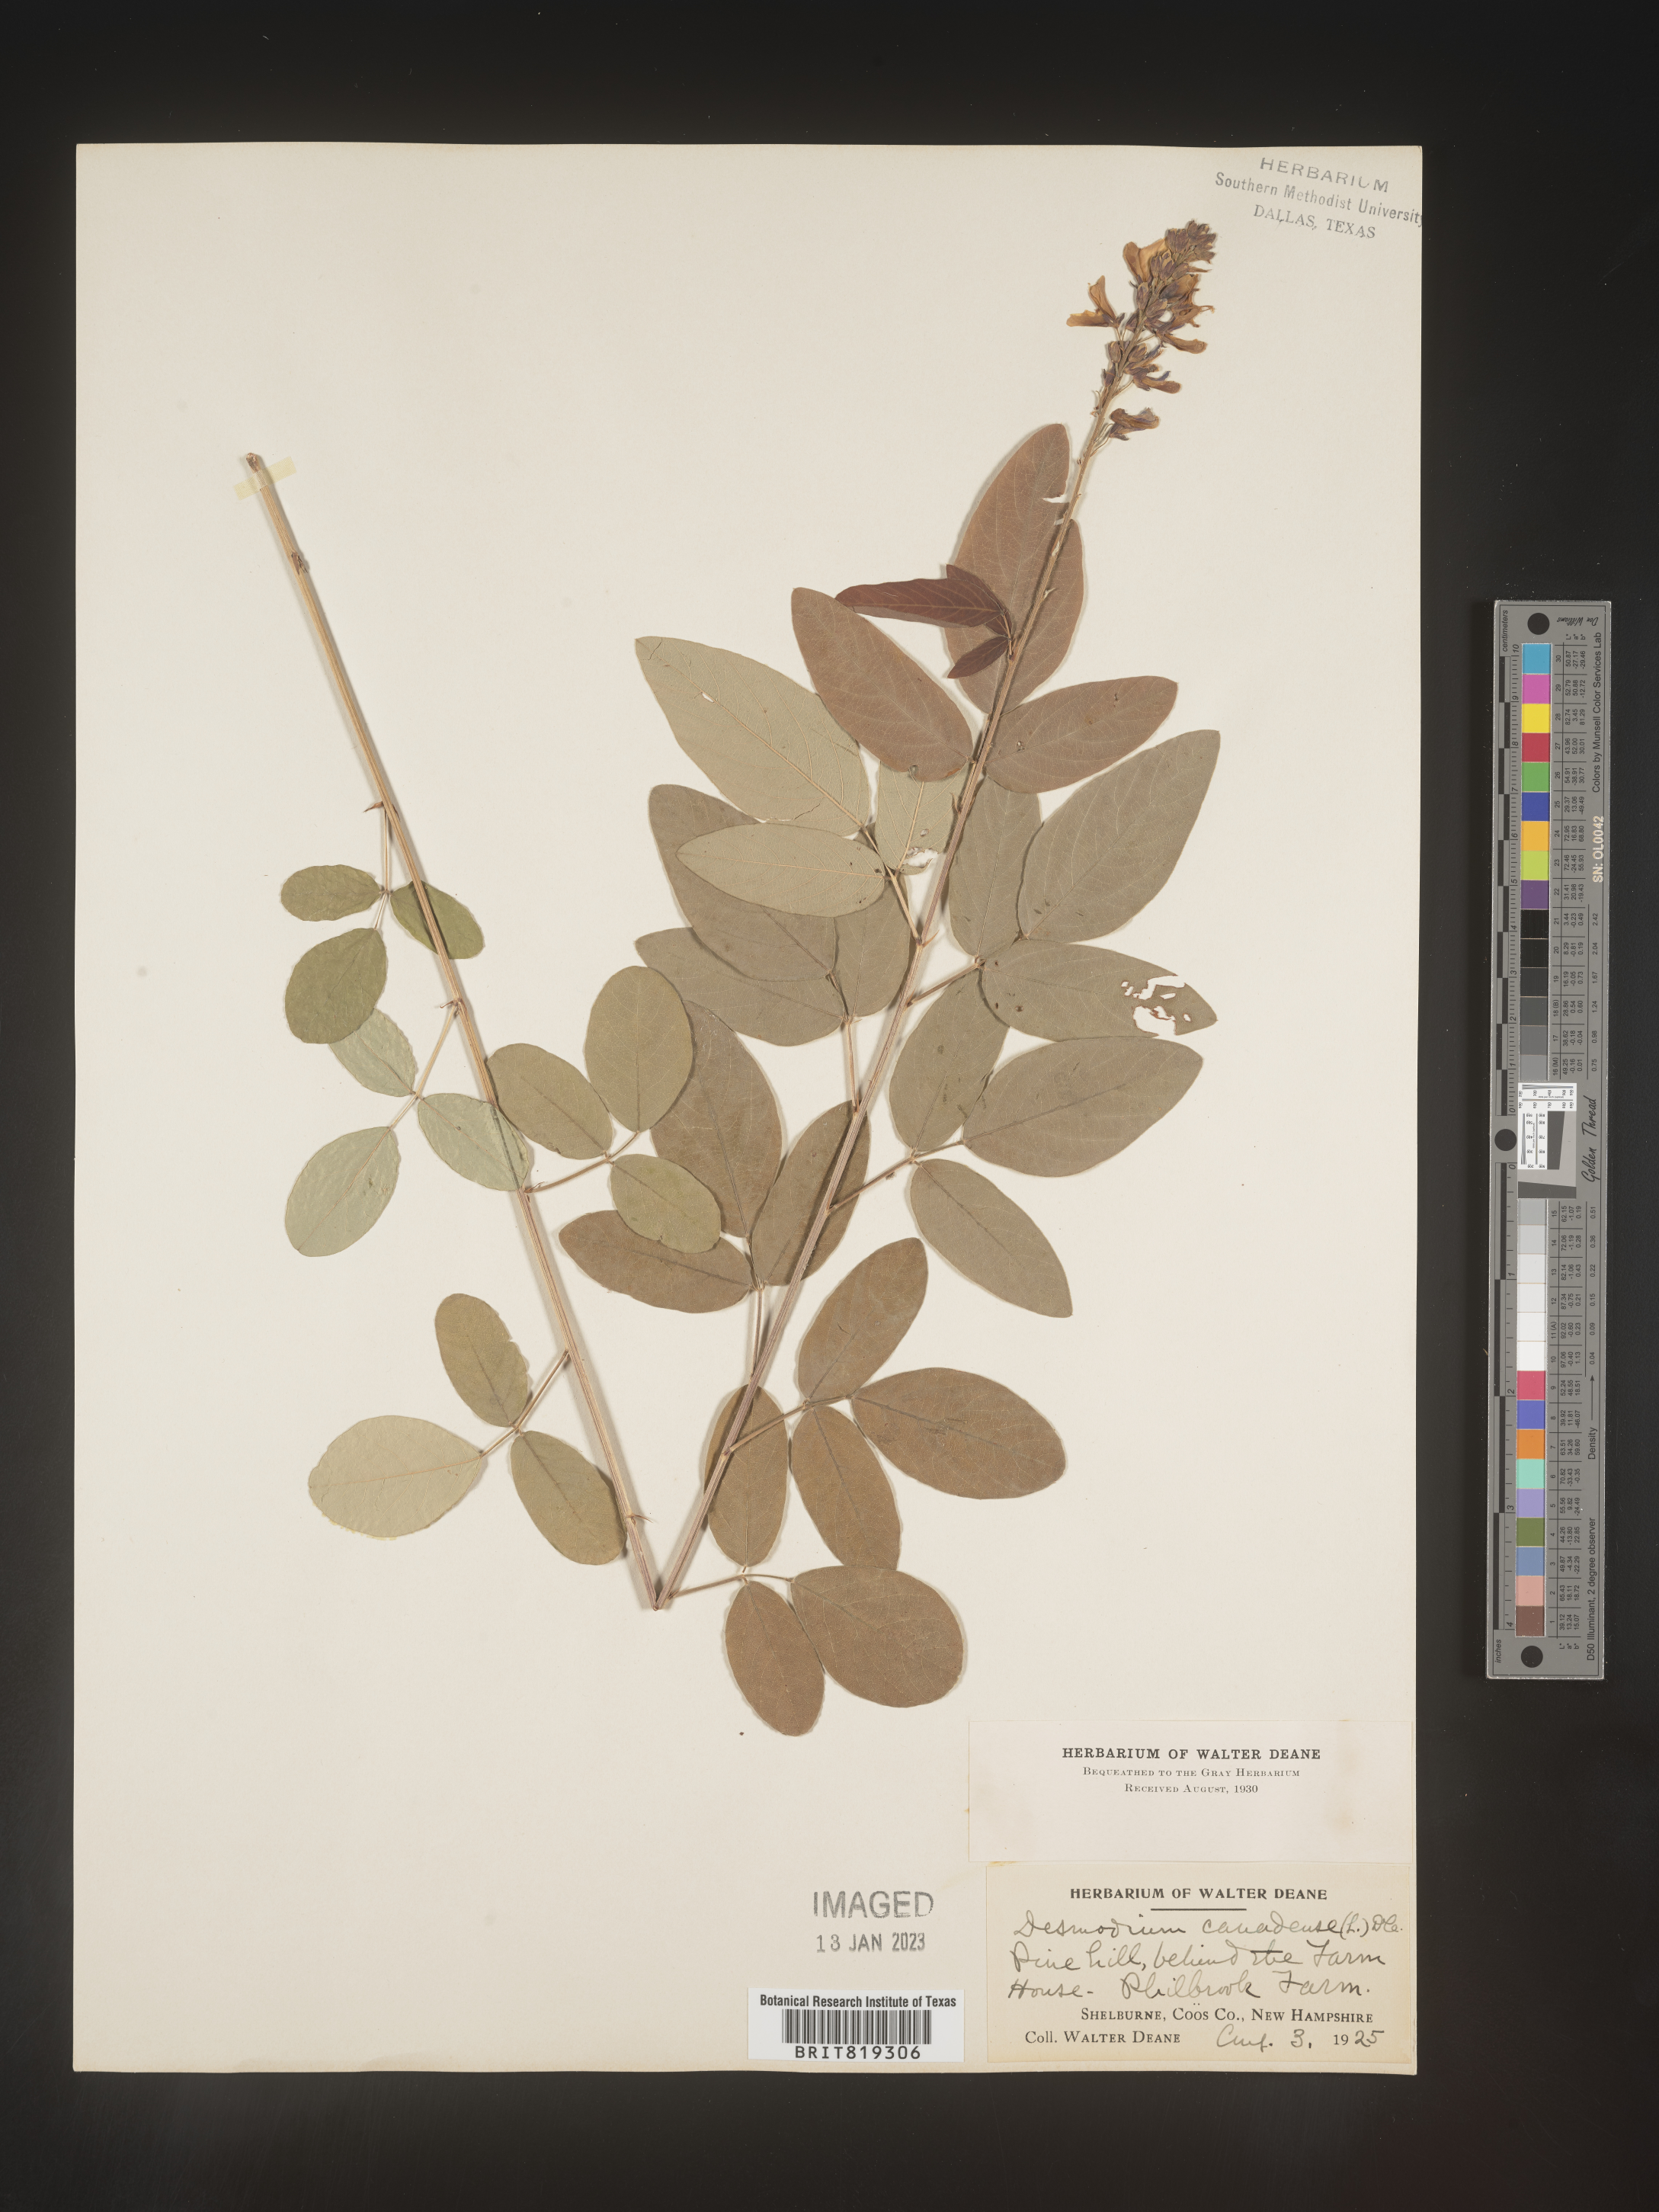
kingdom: Plantae
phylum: Tracheophyta
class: Magnoliopsida
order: Fabales
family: Fabaceae
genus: Desmodium
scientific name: Desmodium paniculatum
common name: Panicled tick-clover
